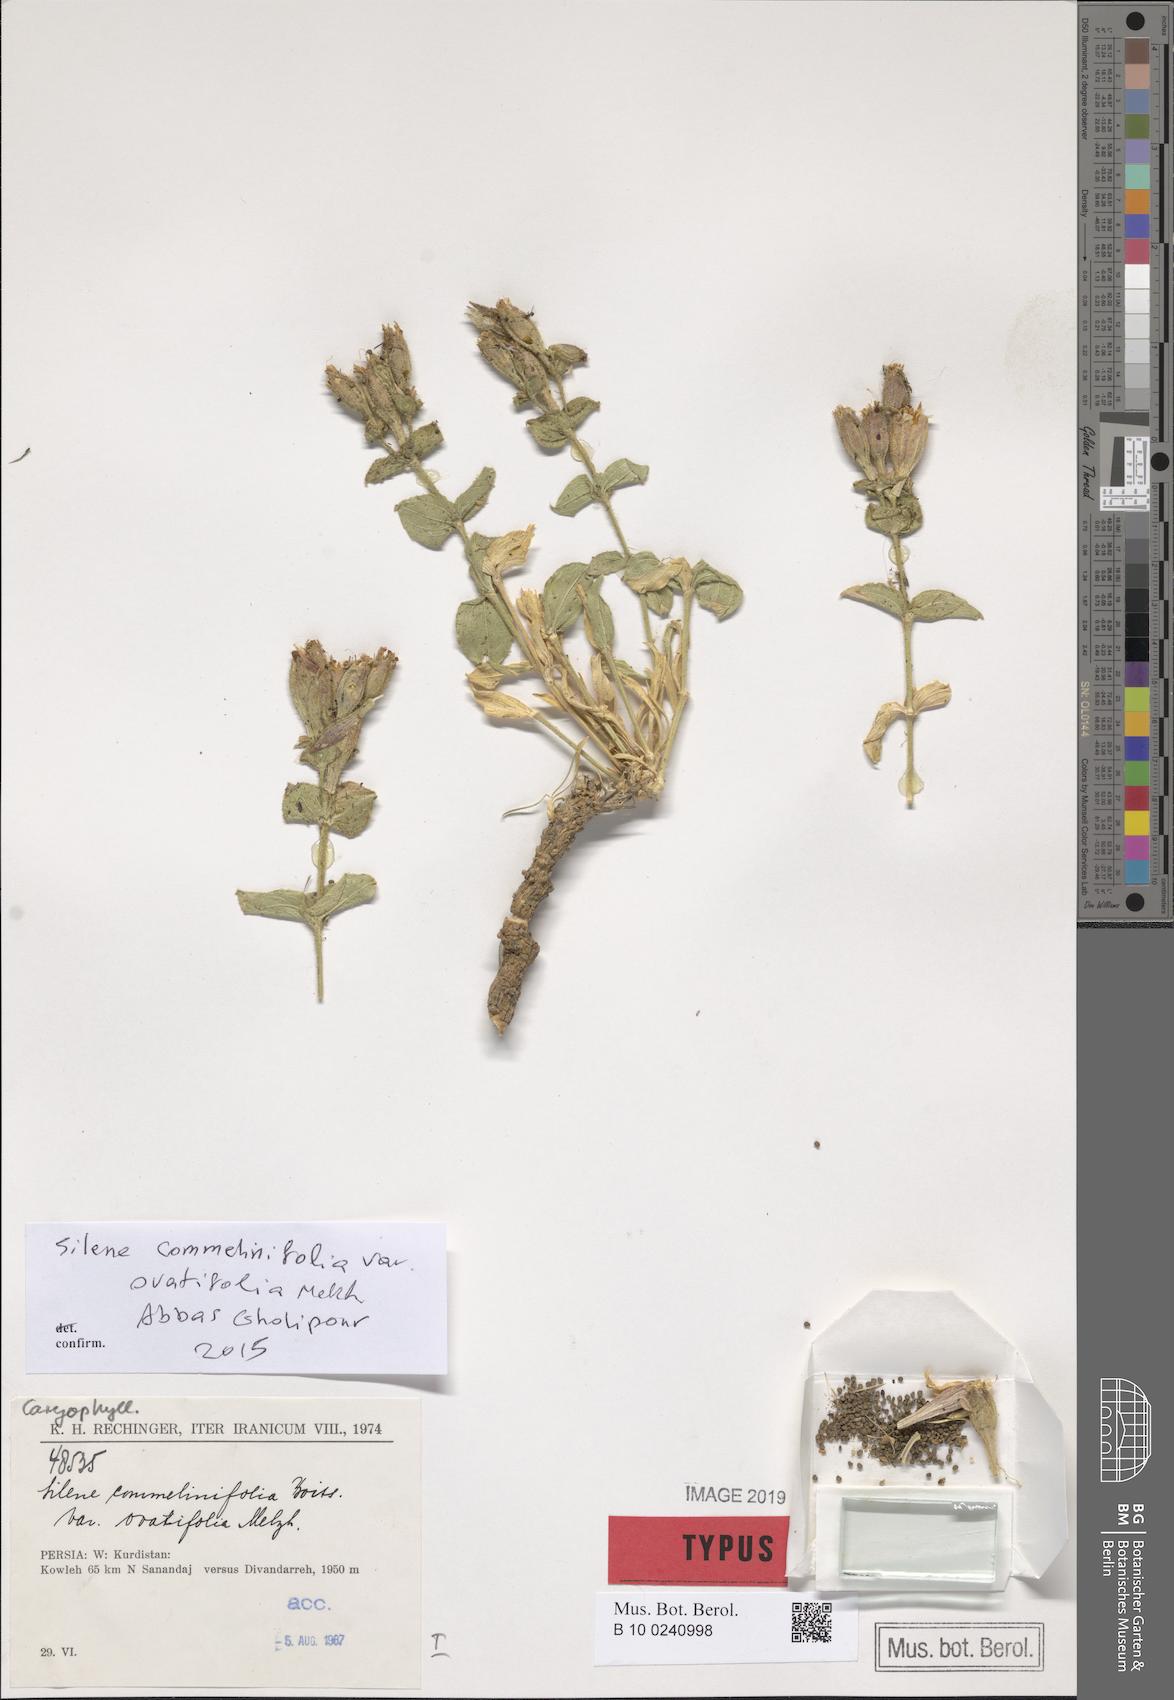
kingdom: Plantae
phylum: Tracheophyta
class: Magnoliopsida
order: Caryophyllales
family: Caryophyllaceae
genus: Silene
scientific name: Silene commelinifolia
